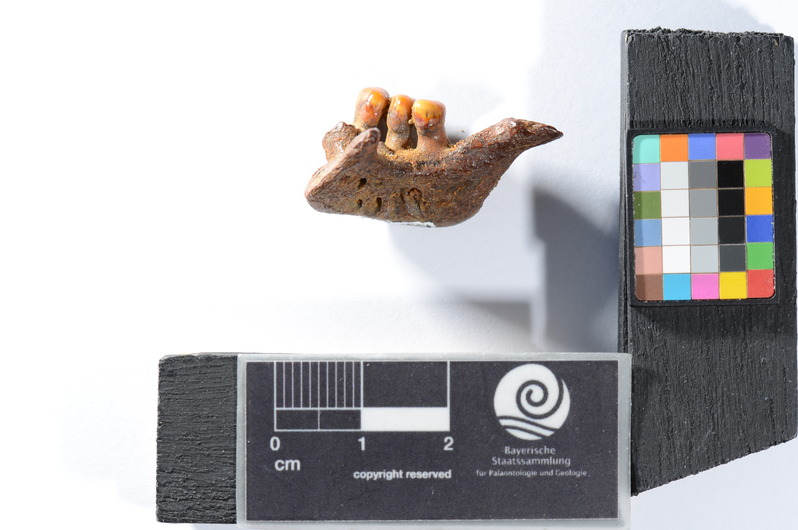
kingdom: Animalia
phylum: Chordata
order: Cypriniformes
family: Cyprinidae
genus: Tinca
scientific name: Tinca
